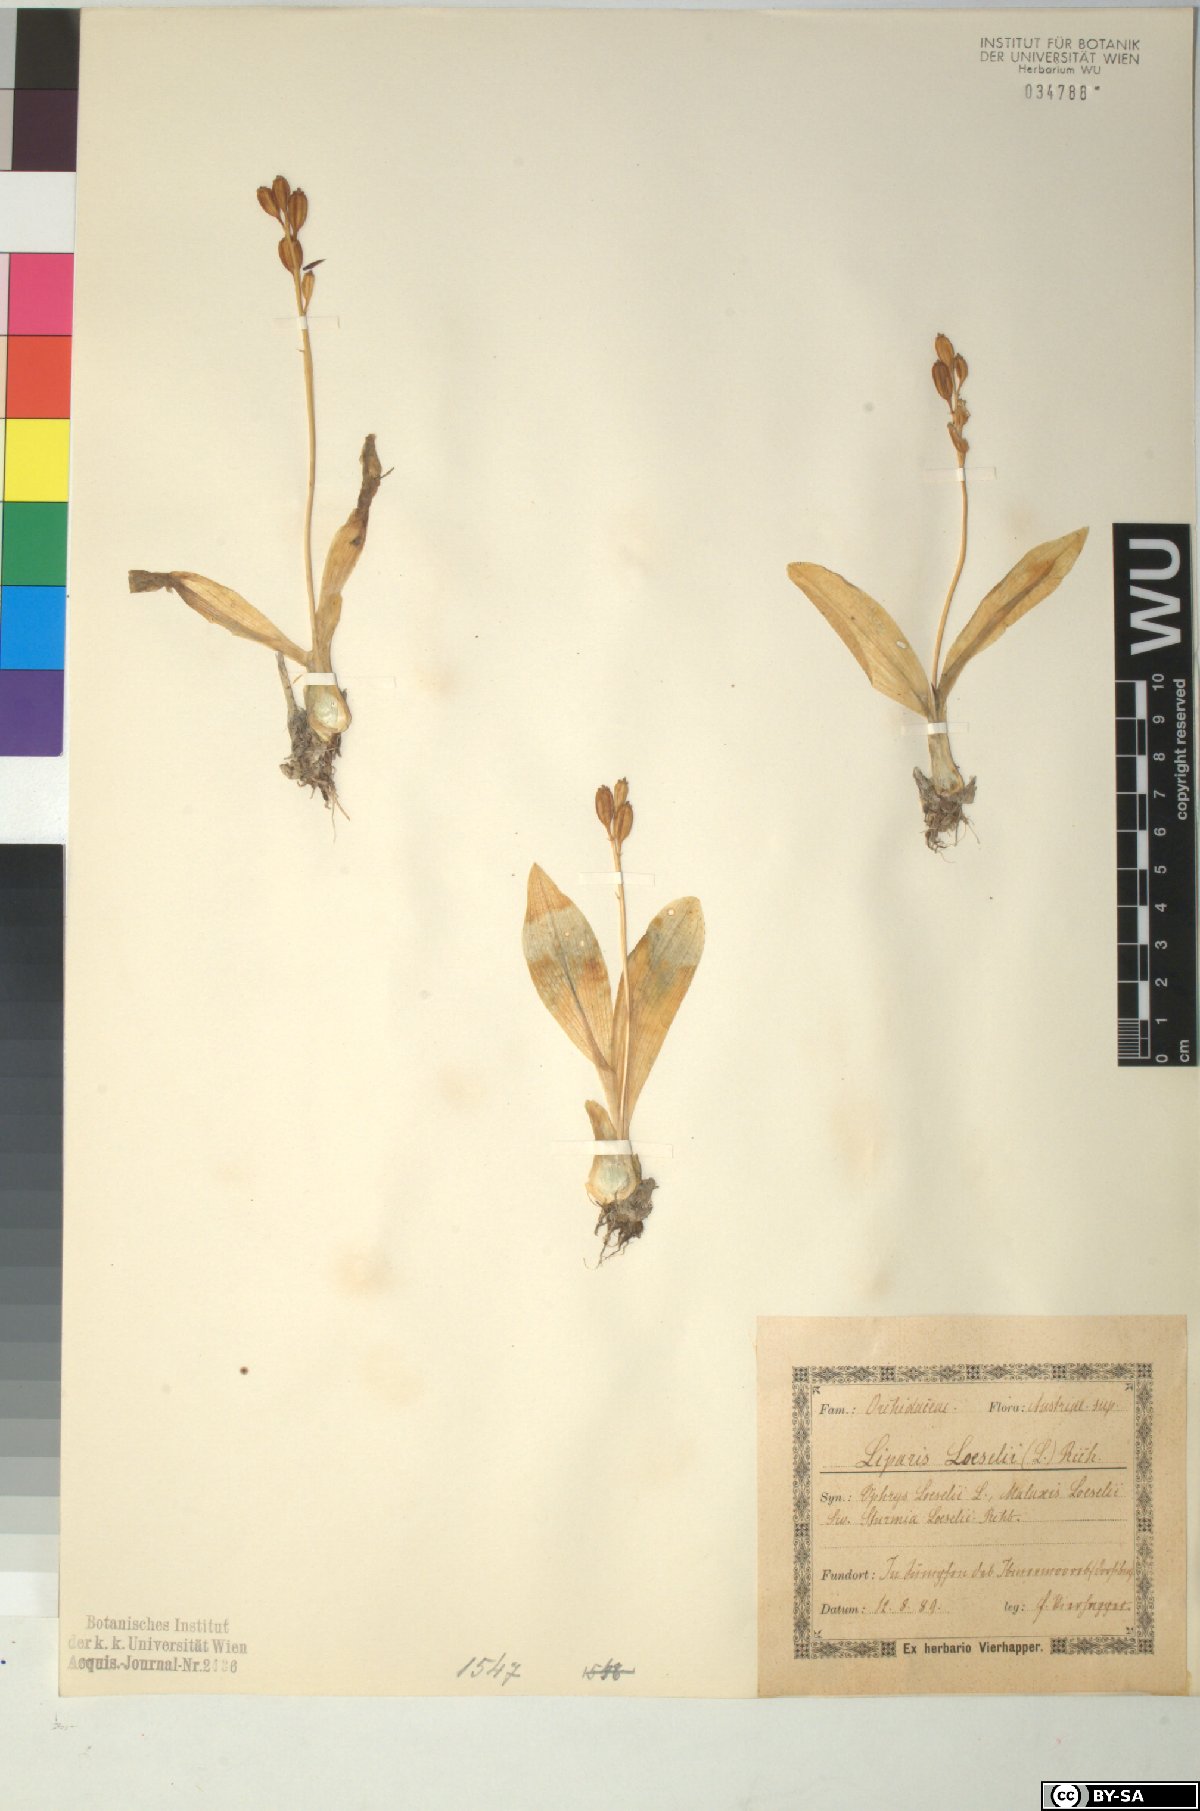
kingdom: Animalia
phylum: Arthropoda
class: Insecta
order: Coleoptera
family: Curculionidae
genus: Liparis
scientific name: Liparis loeselii
